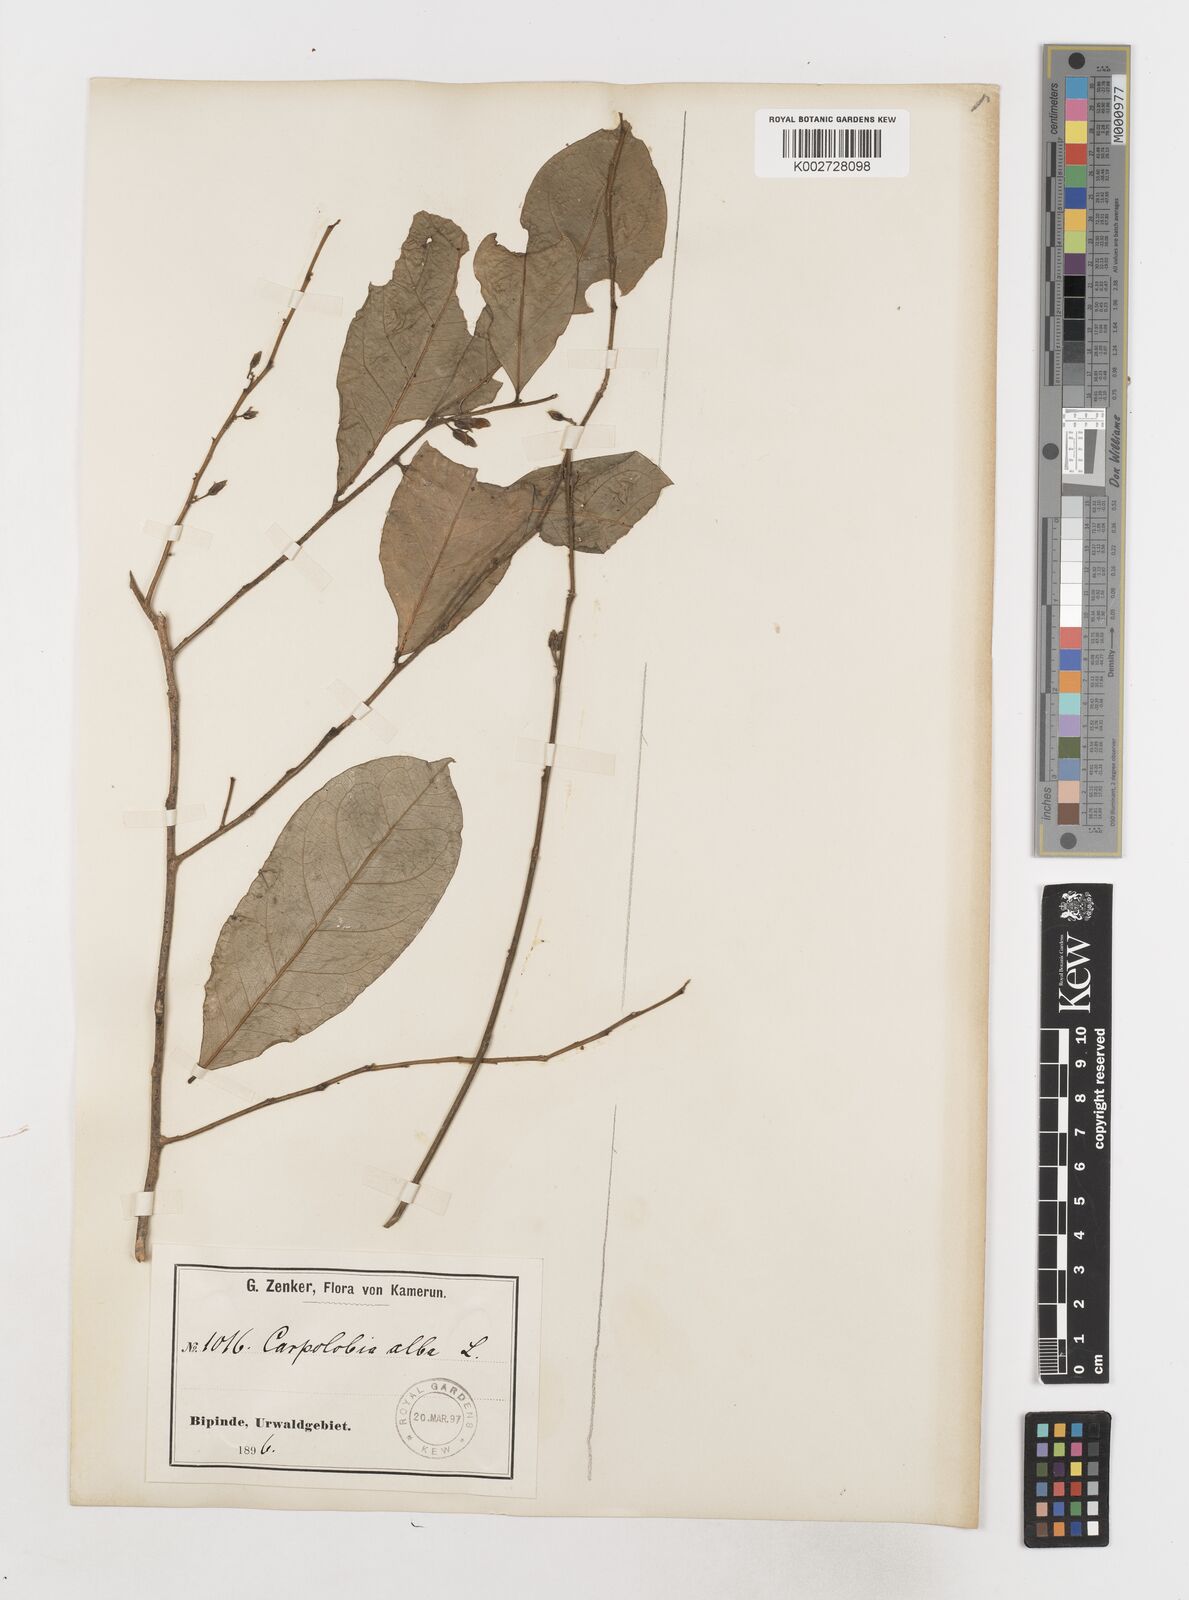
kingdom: Plantae
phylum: Tracheophyta
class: Magnoliopsida
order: Fabales
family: Polygalaceae
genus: Carpolobia
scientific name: Carpolobia alba
